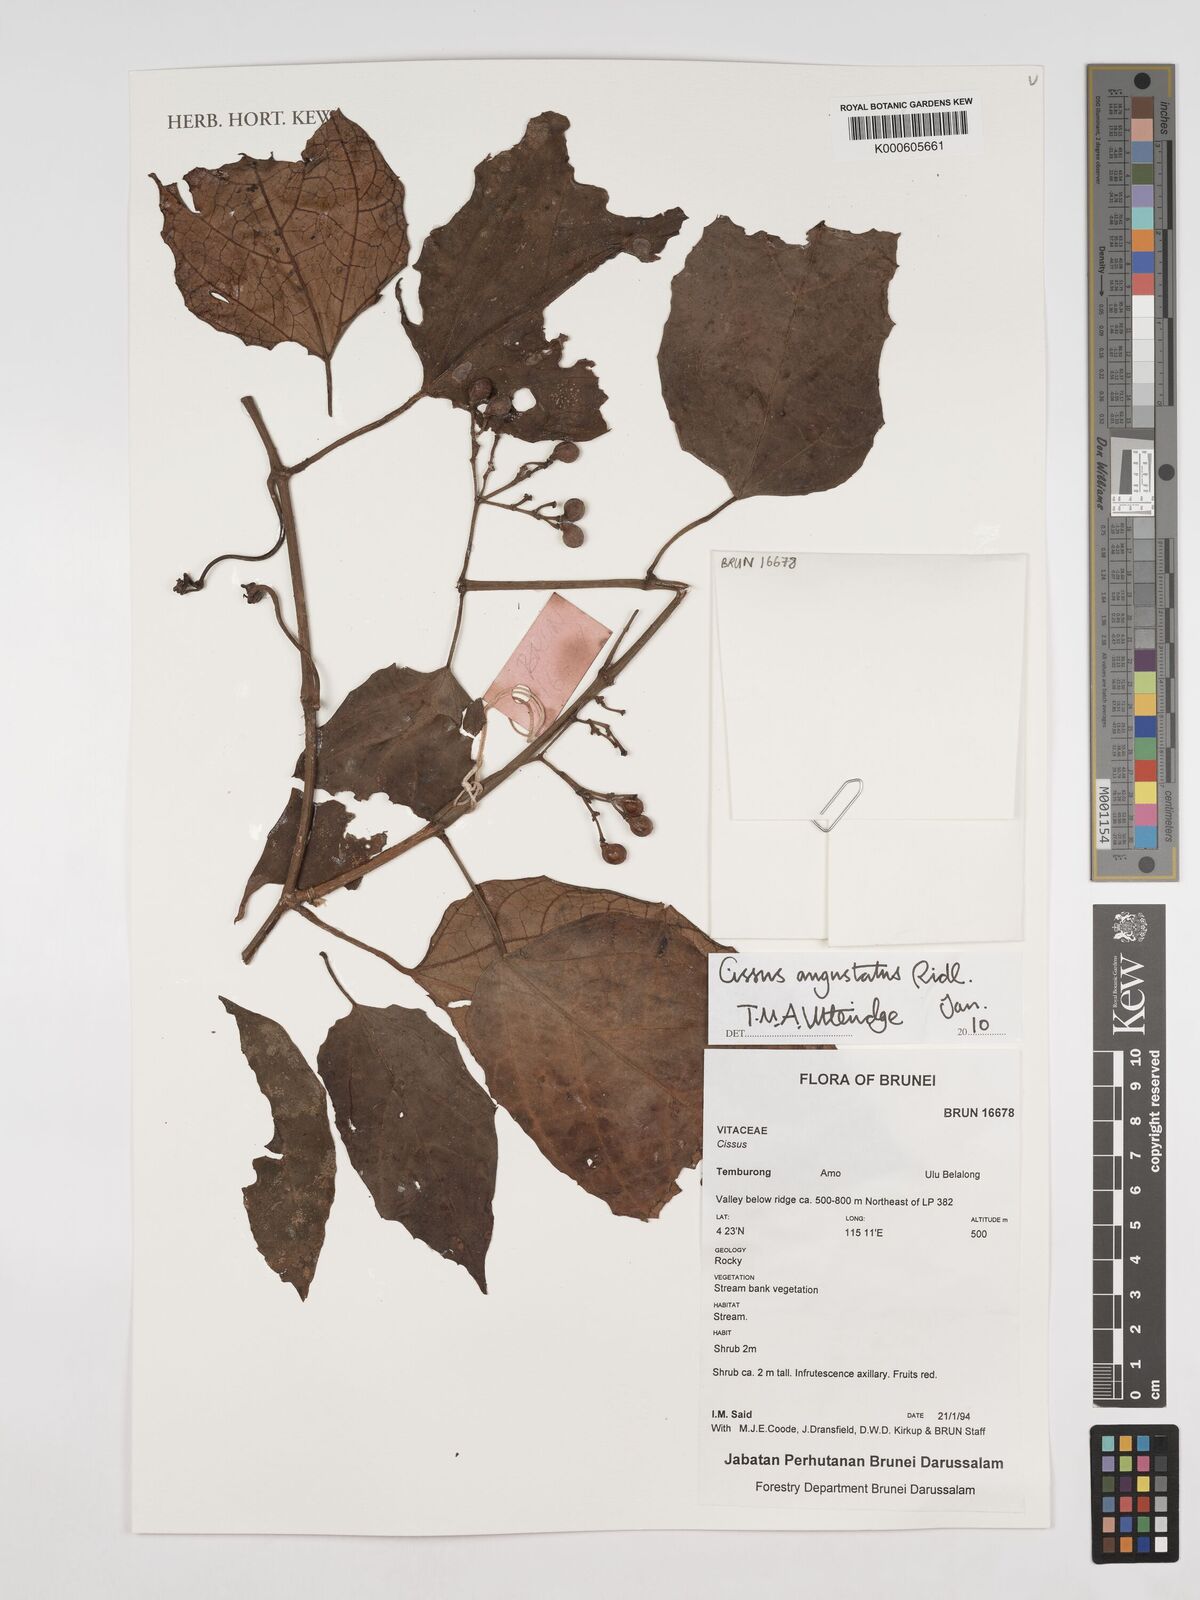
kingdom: Plantae
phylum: Tracheophyta
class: Magnoliopsida
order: Vitales
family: Vitaceae
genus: Cissus
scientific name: Cissus angustata
